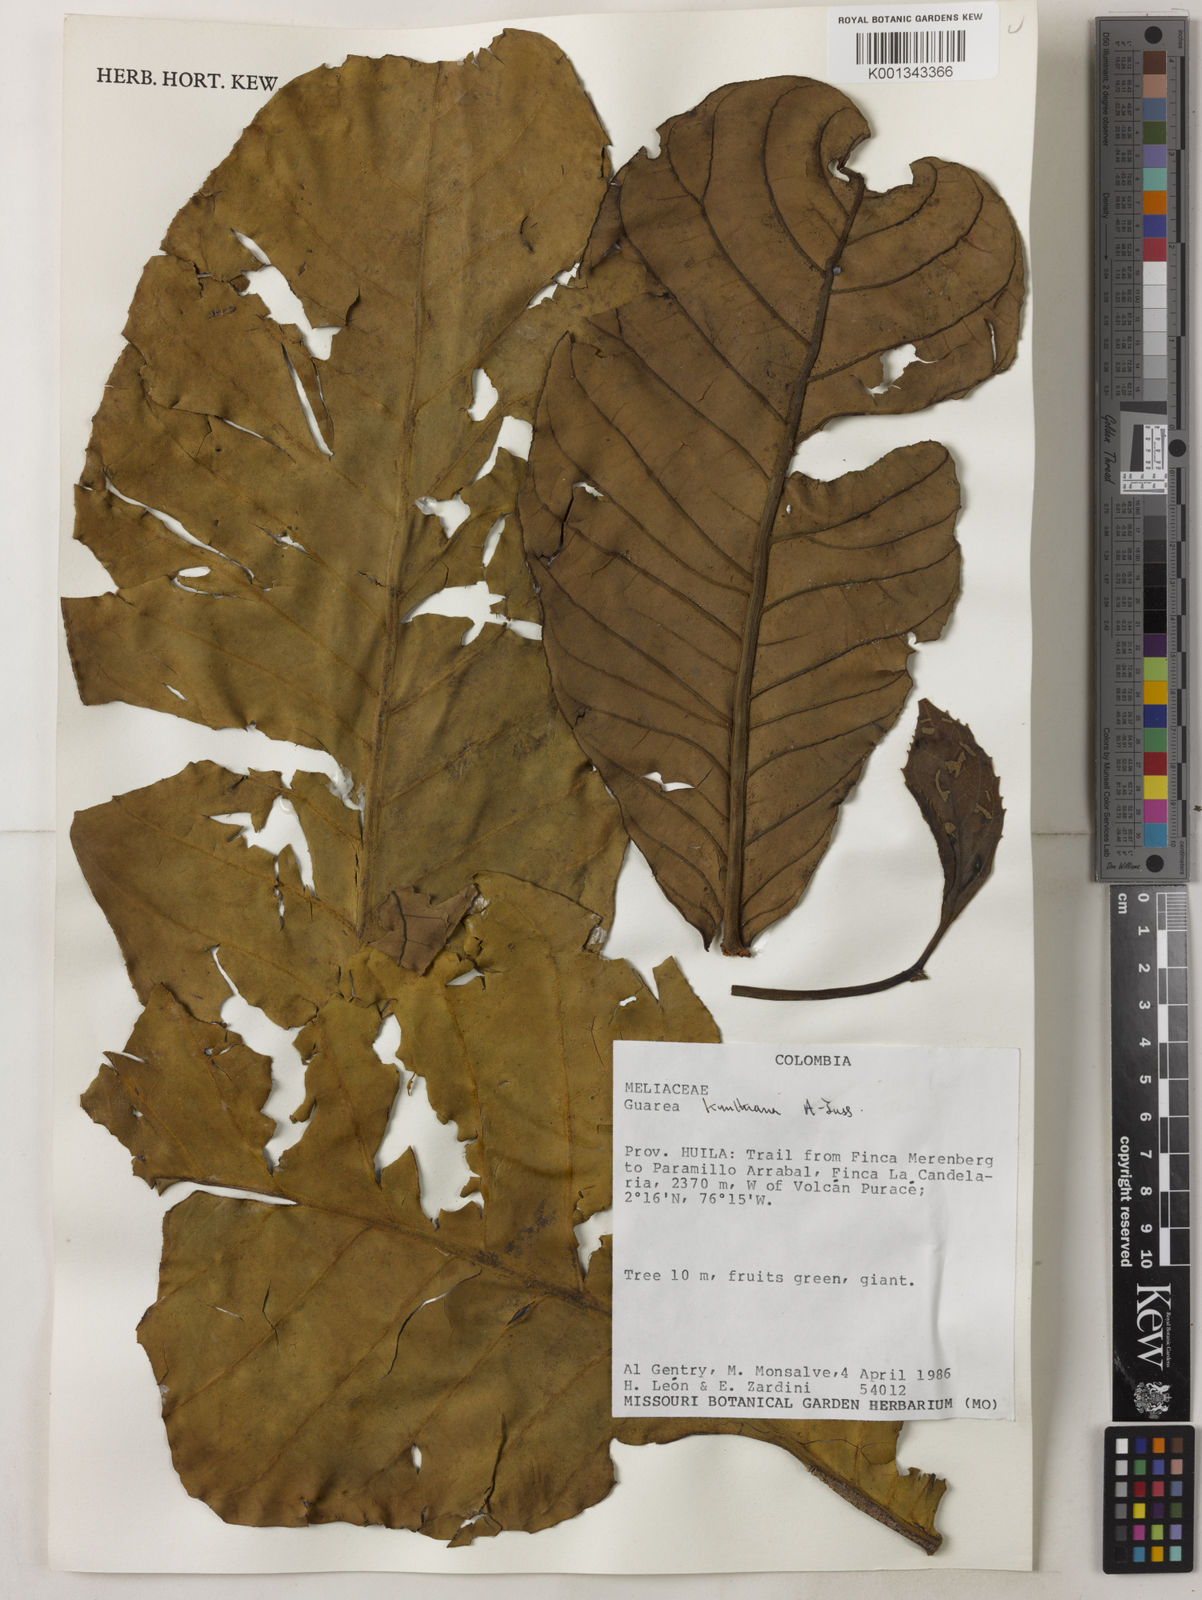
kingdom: Plantae
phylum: Tracheophyta
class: Magnoliopsida
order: Sapindales
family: Meliaceae
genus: Guarea
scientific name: Guarea kunthiana
